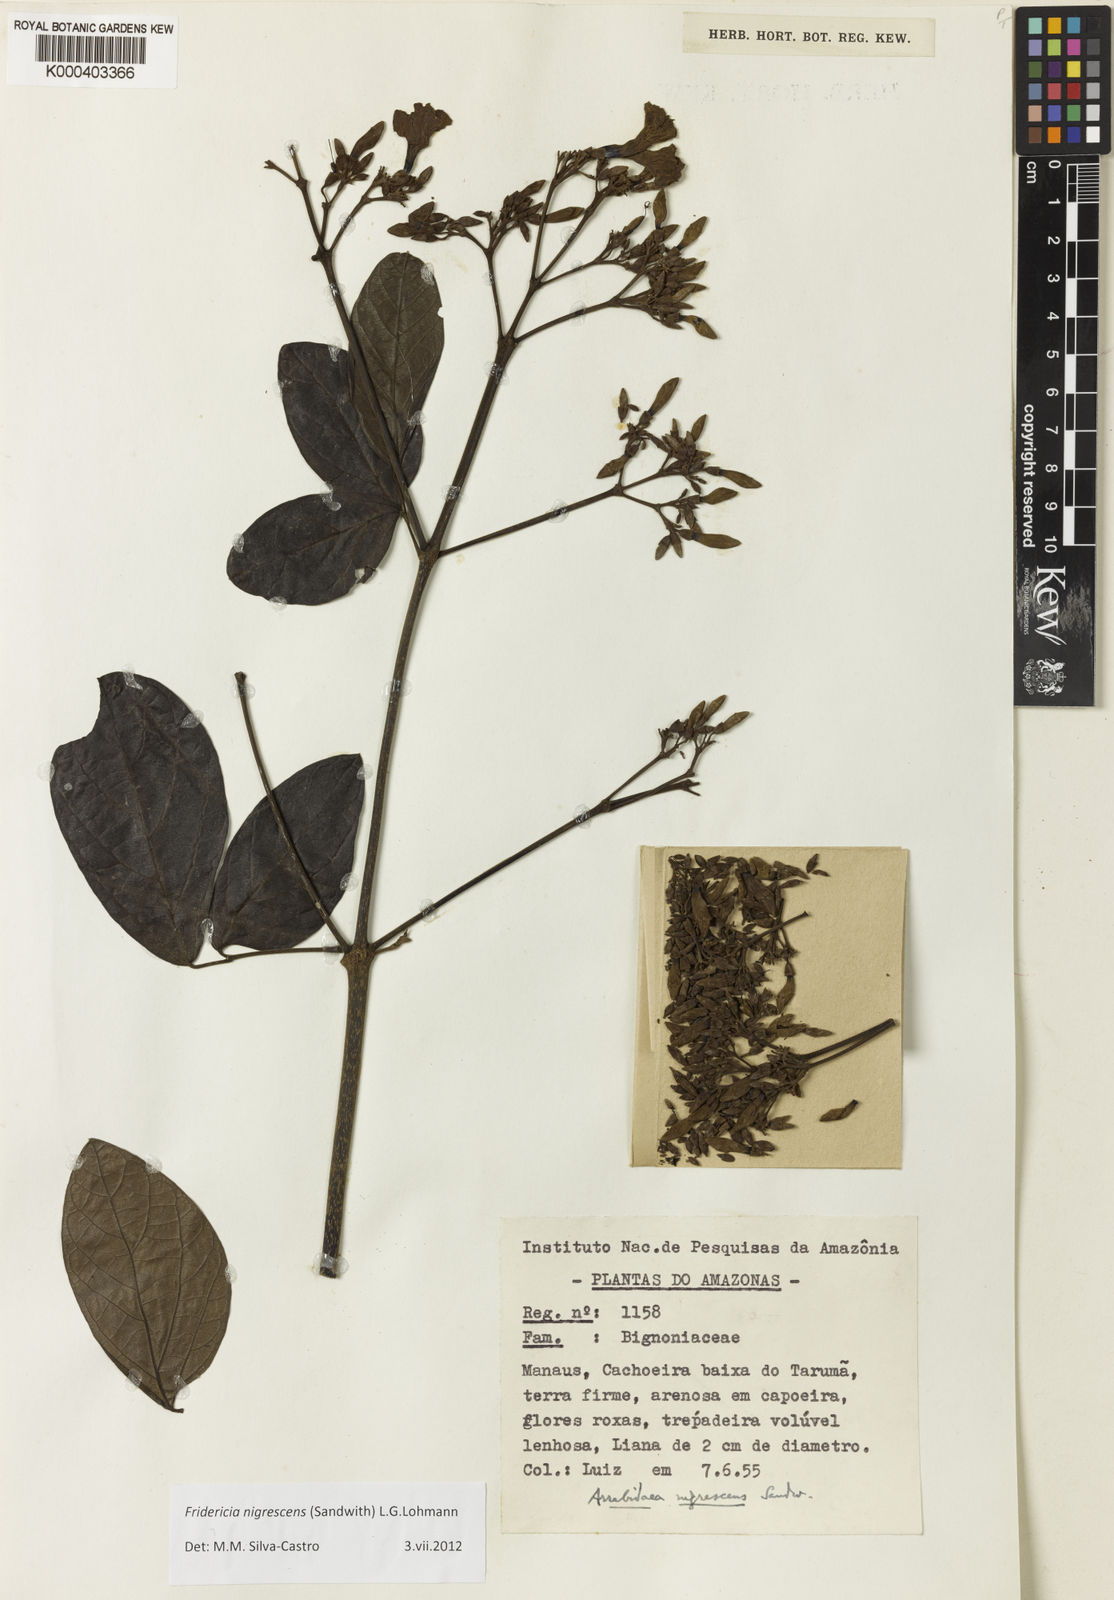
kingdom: Plantae
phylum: Tracheophyta
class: Magnoliopsida
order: Lamiales
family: Bignoniaceae
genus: Fridericia
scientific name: Fridericia nigrescens
